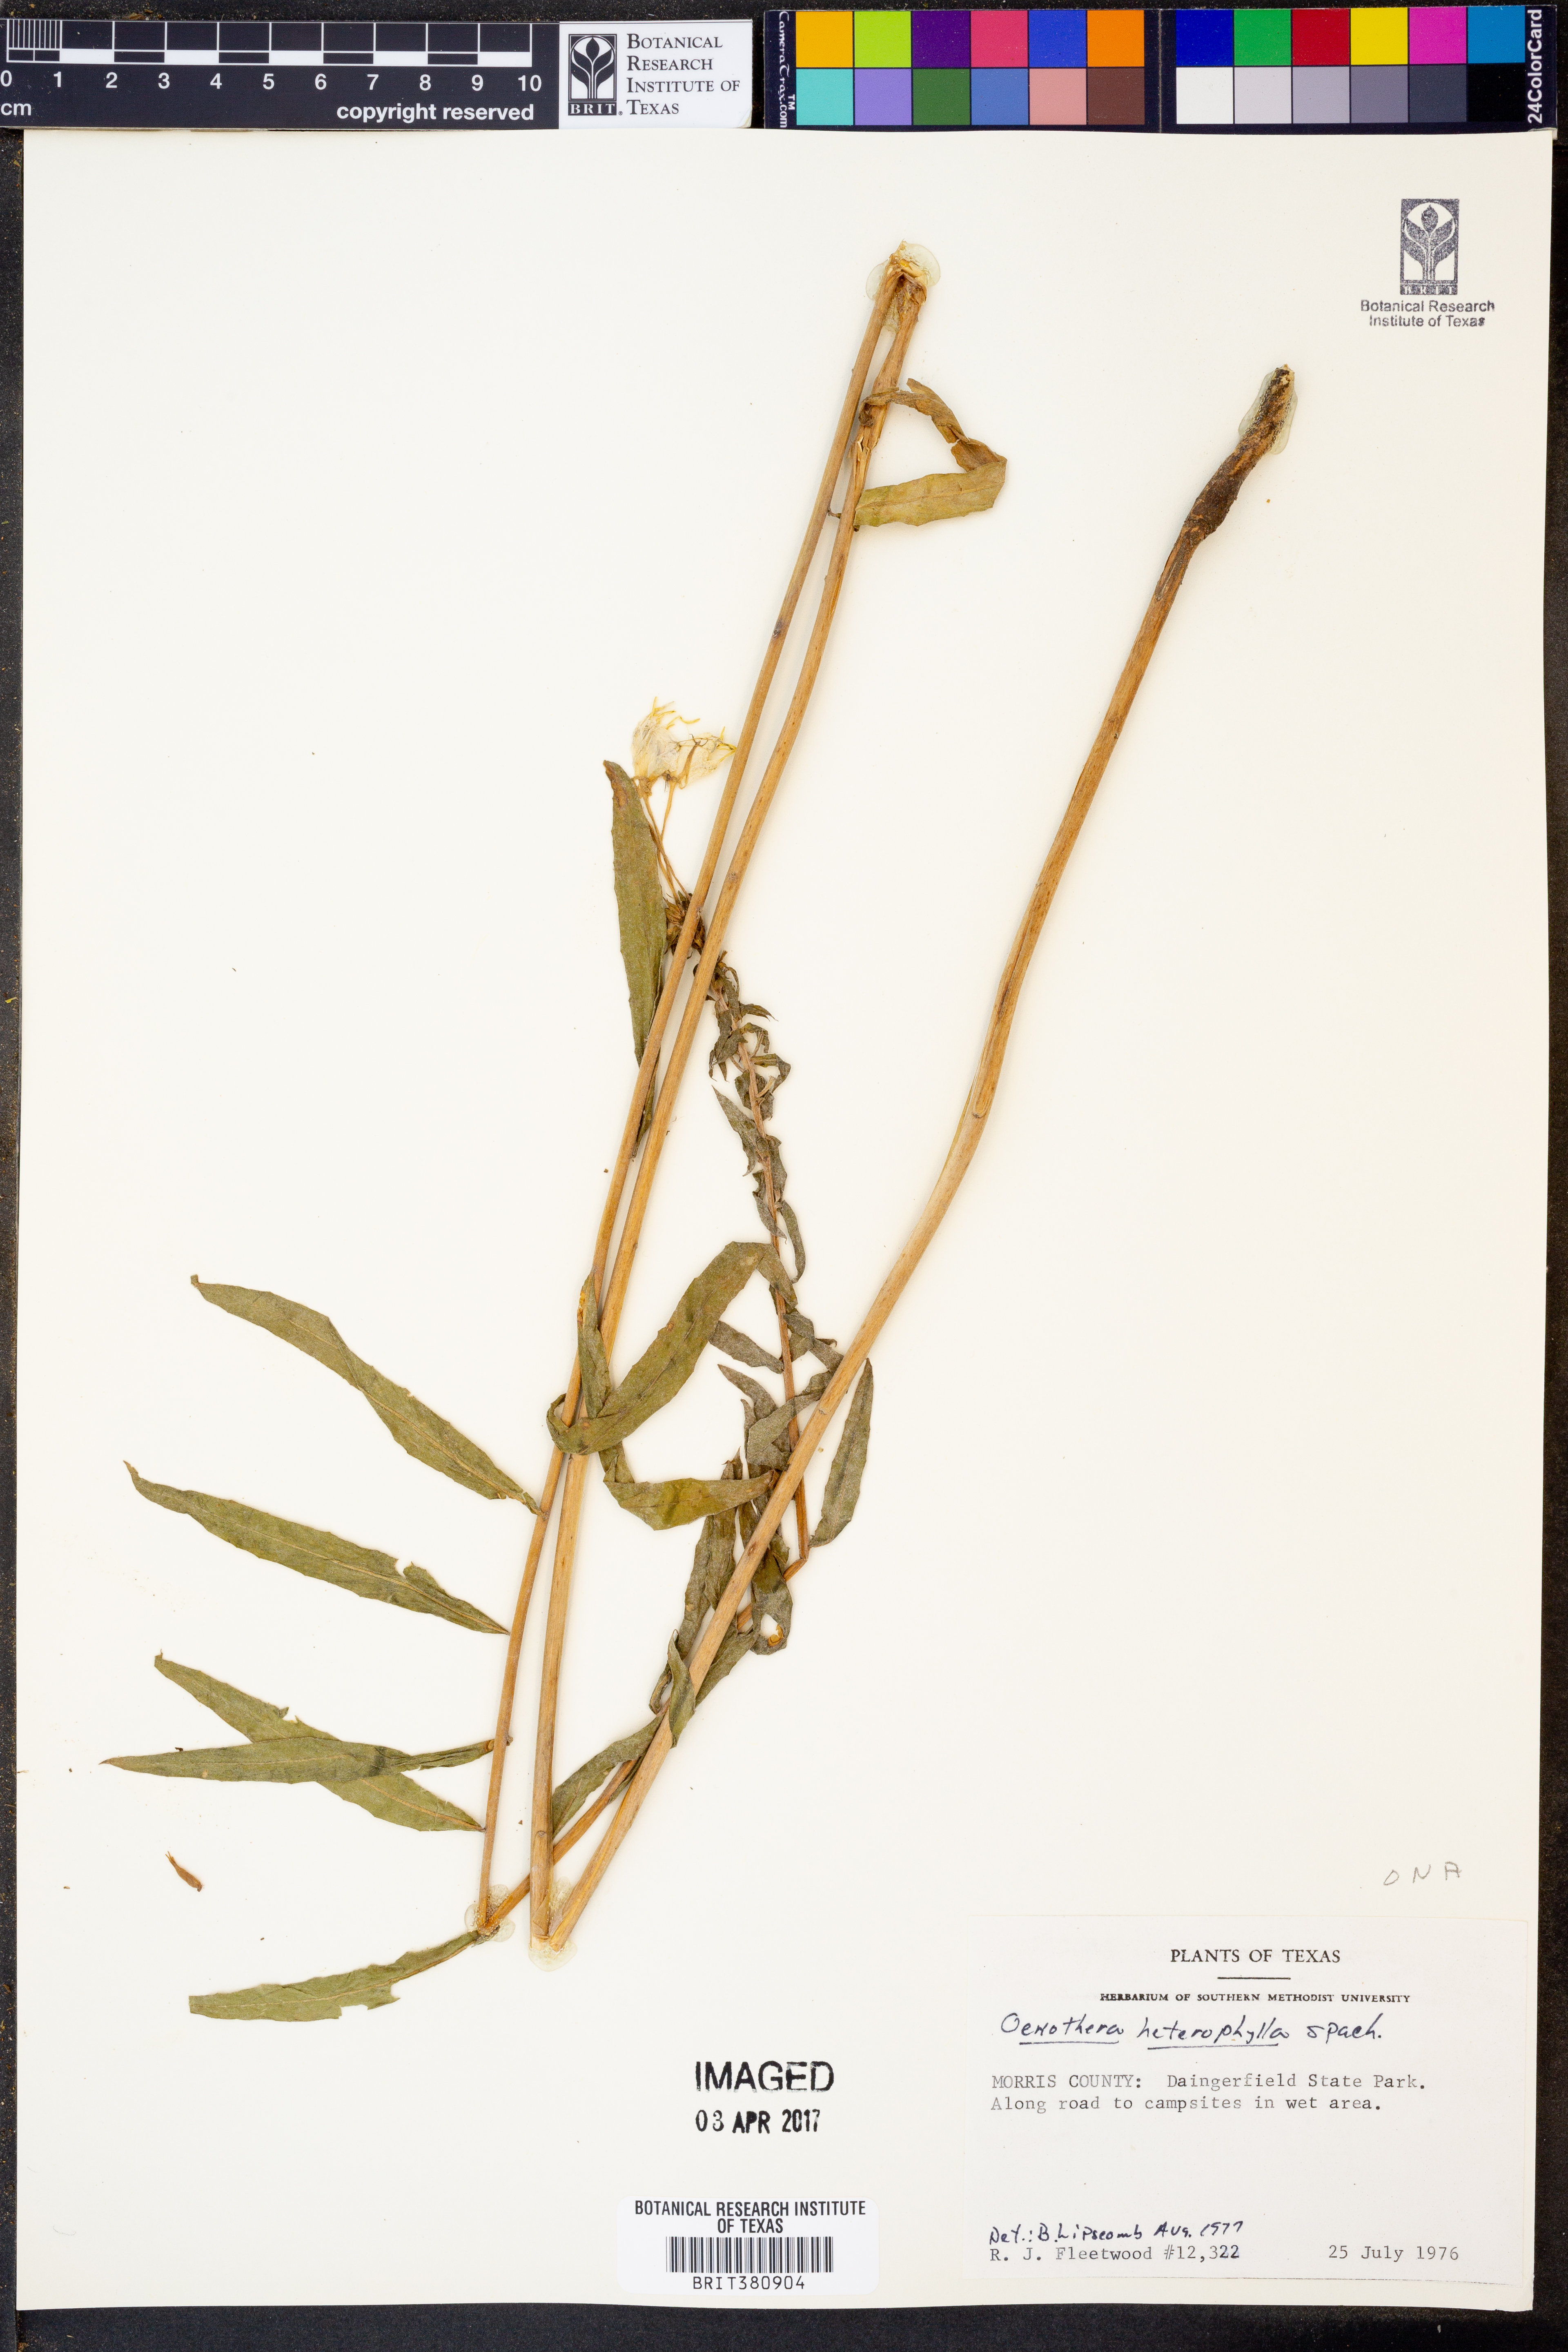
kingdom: Plantae
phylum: Tracheophyta
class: Magnoliopsida
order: Myrtales
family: Onagraceae
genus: Camissonia
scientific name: Camissonia dentata
